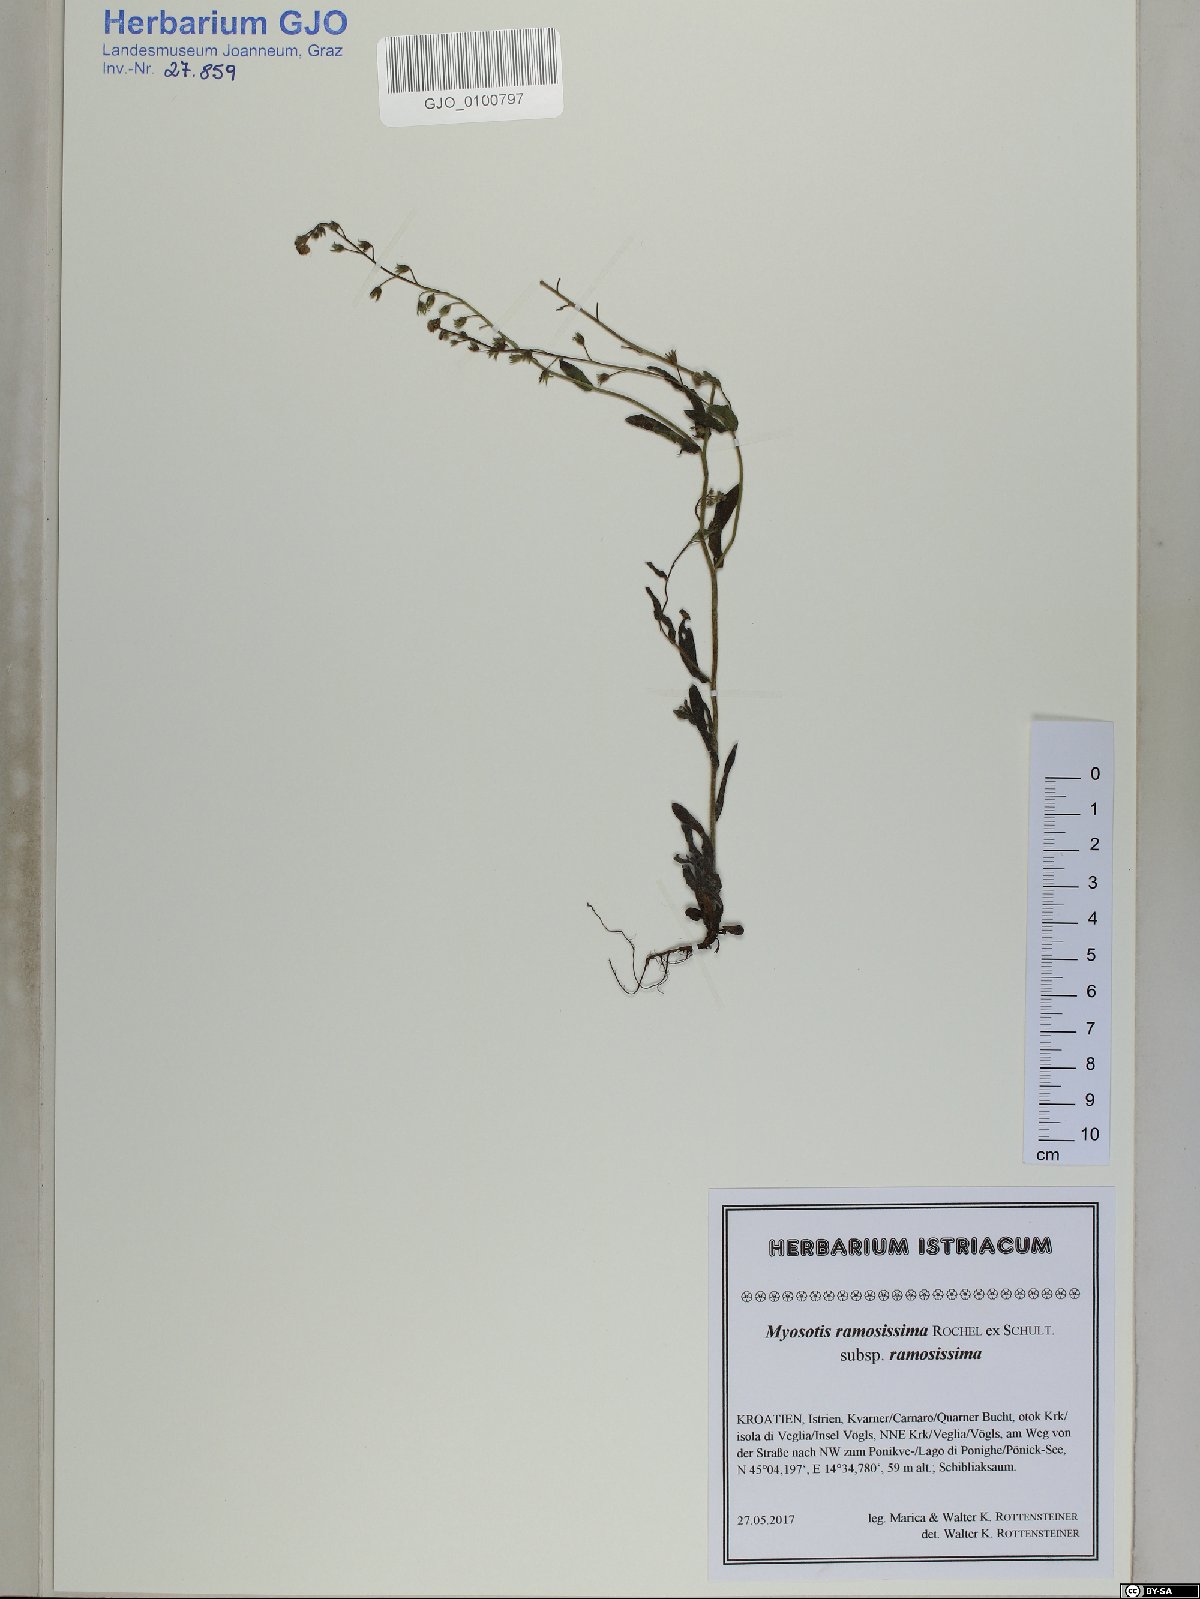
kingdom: Plantae
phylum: Tracheophyta
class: Magnoliopsida
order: Boraginales
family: Boraginaceae
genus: Myosotis
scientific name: Myosotis ramosissima
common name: Early forget-me-not
